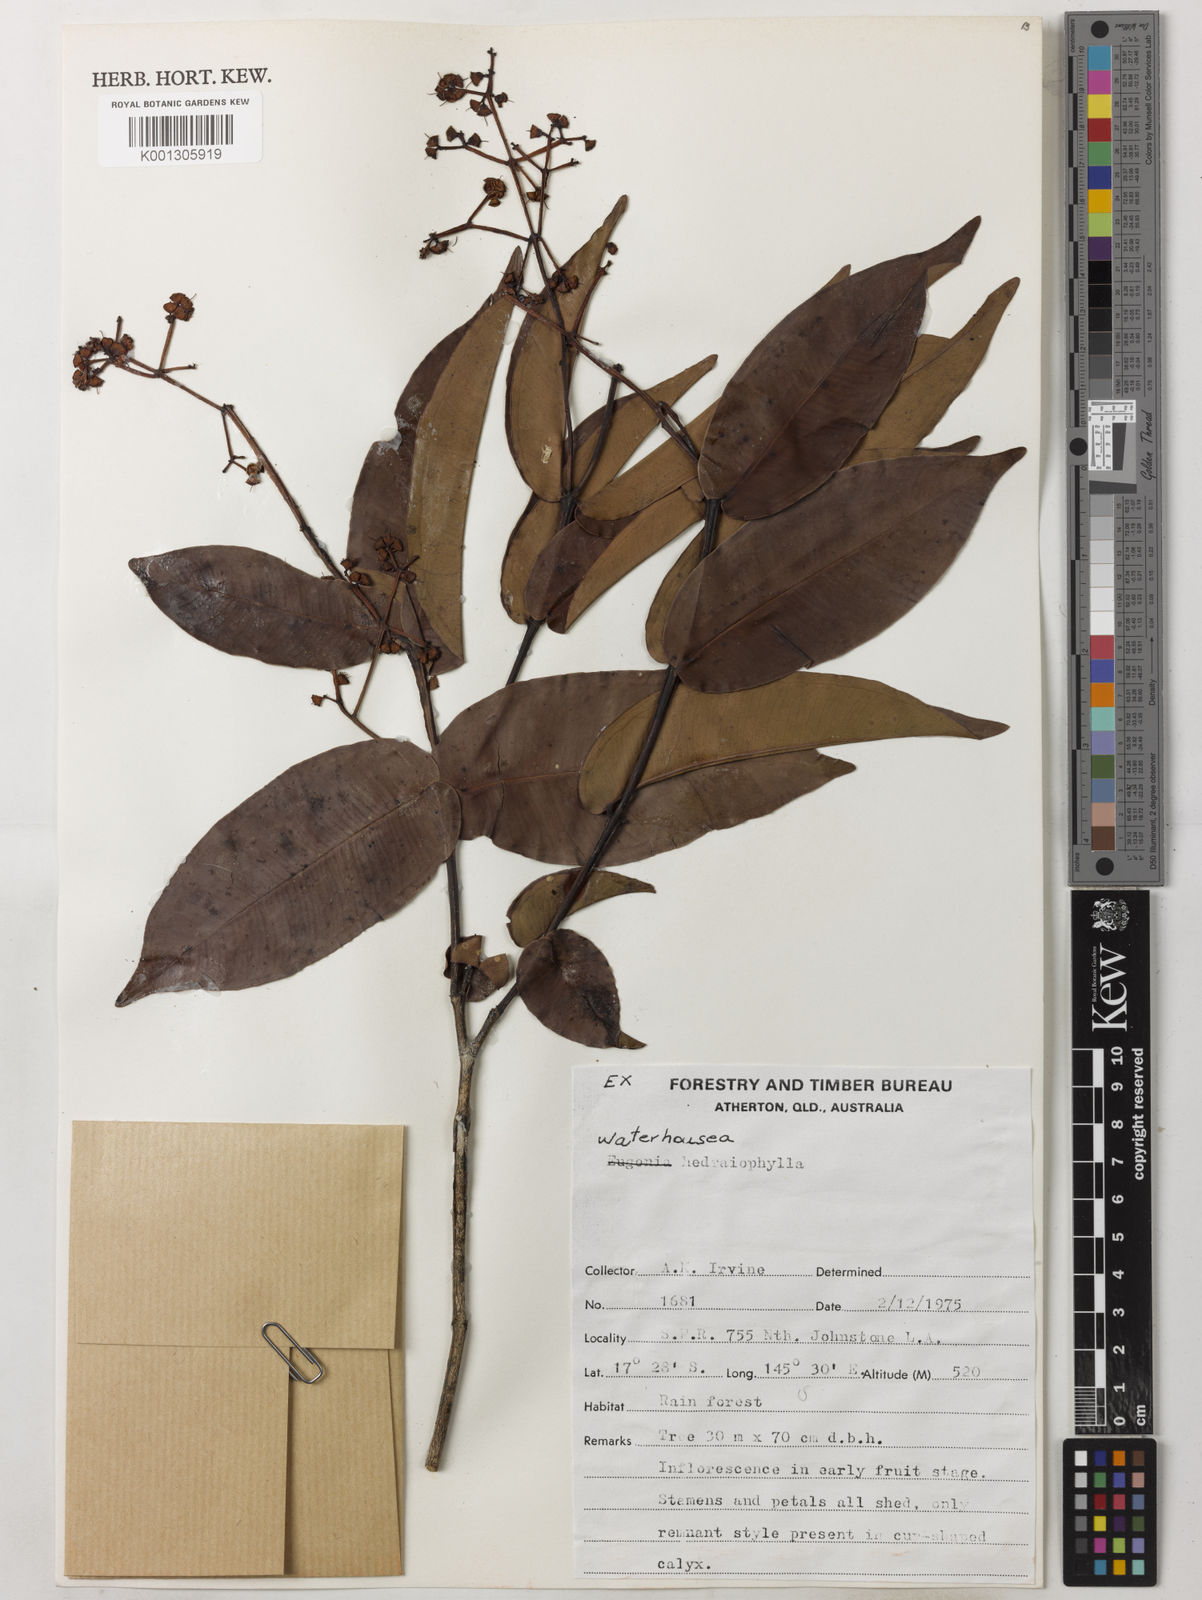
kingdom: Plantae
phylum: Tracheophyta
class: Magnoliopsida
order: Myrtales
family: Myrtaceae
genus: Syzygium
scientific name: Syzygium hedraiophyllum
